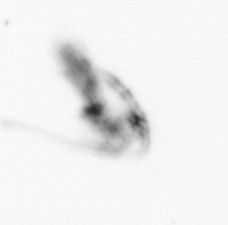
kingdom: Animalia
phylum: Arthropoda
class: Copepoda
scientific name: Copepoda
